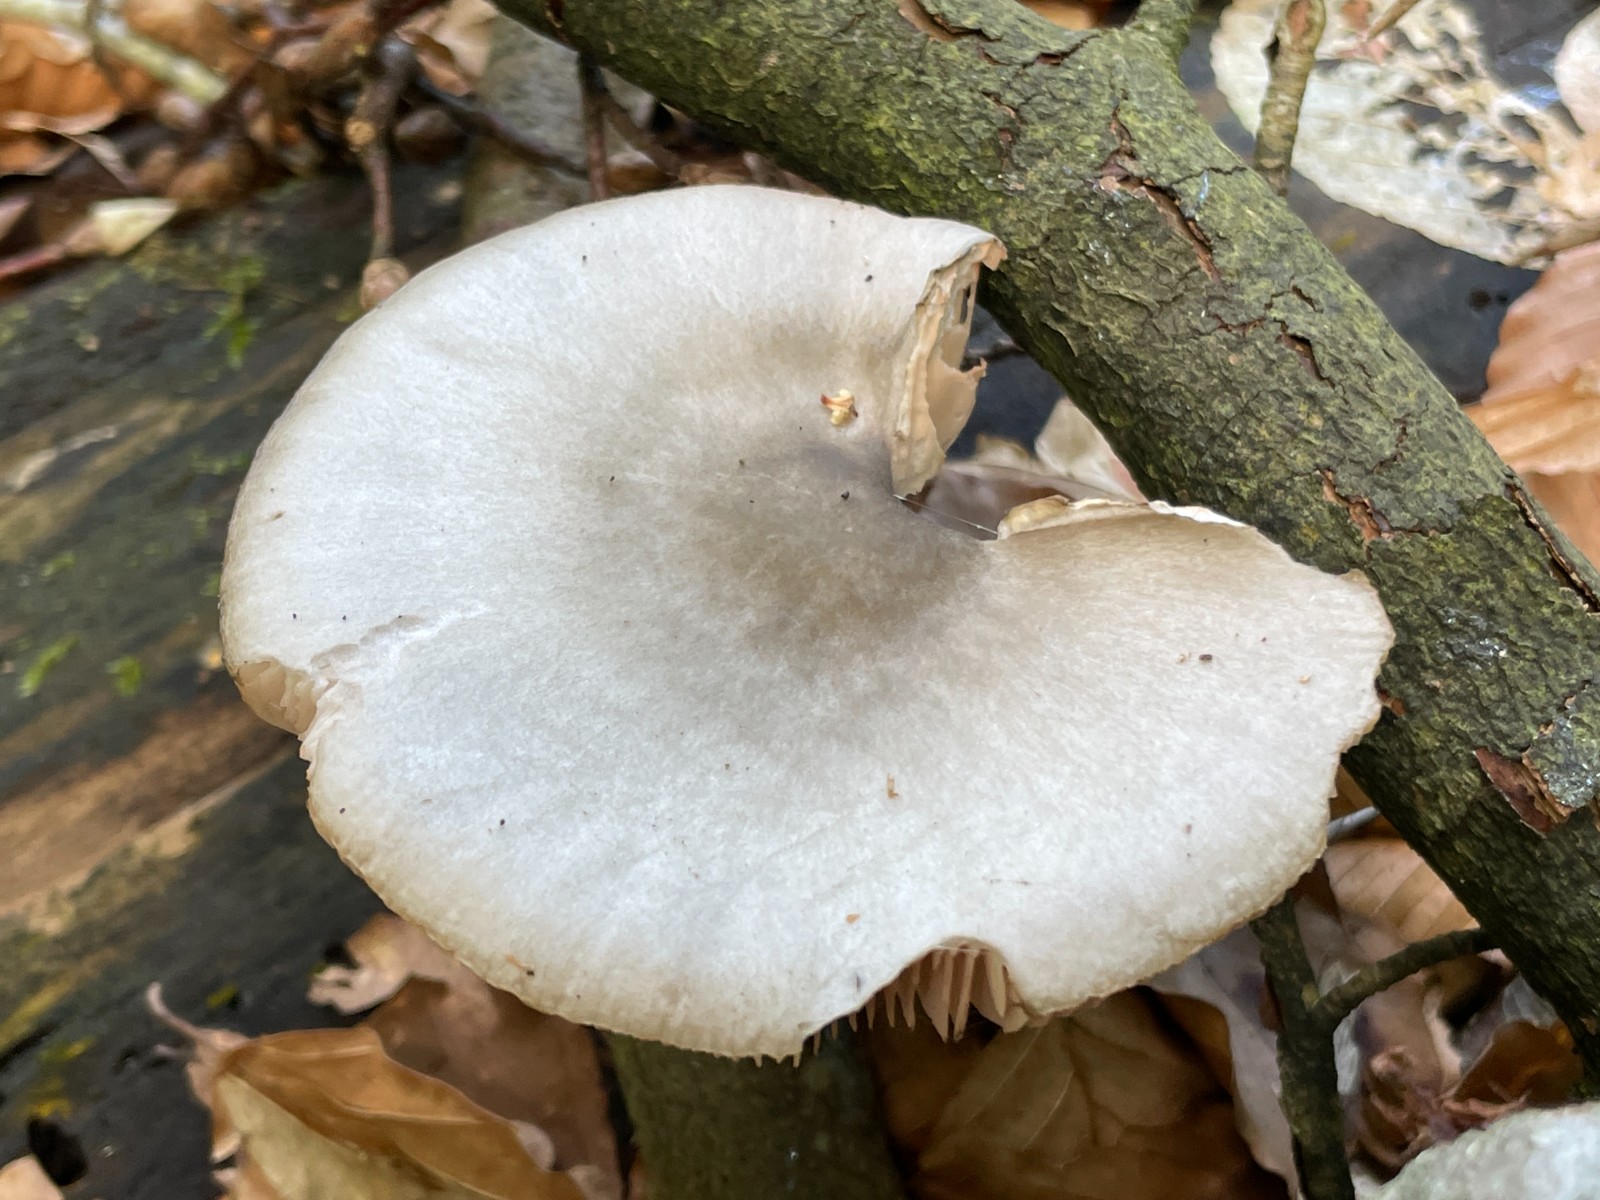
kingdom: Fungi
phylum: Basidiomycota
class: Agaricomycetes
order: Agaricales
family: Pluteaceae
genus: Pluteus
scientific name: Pluteus salicinus
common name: stiv skærmhat
